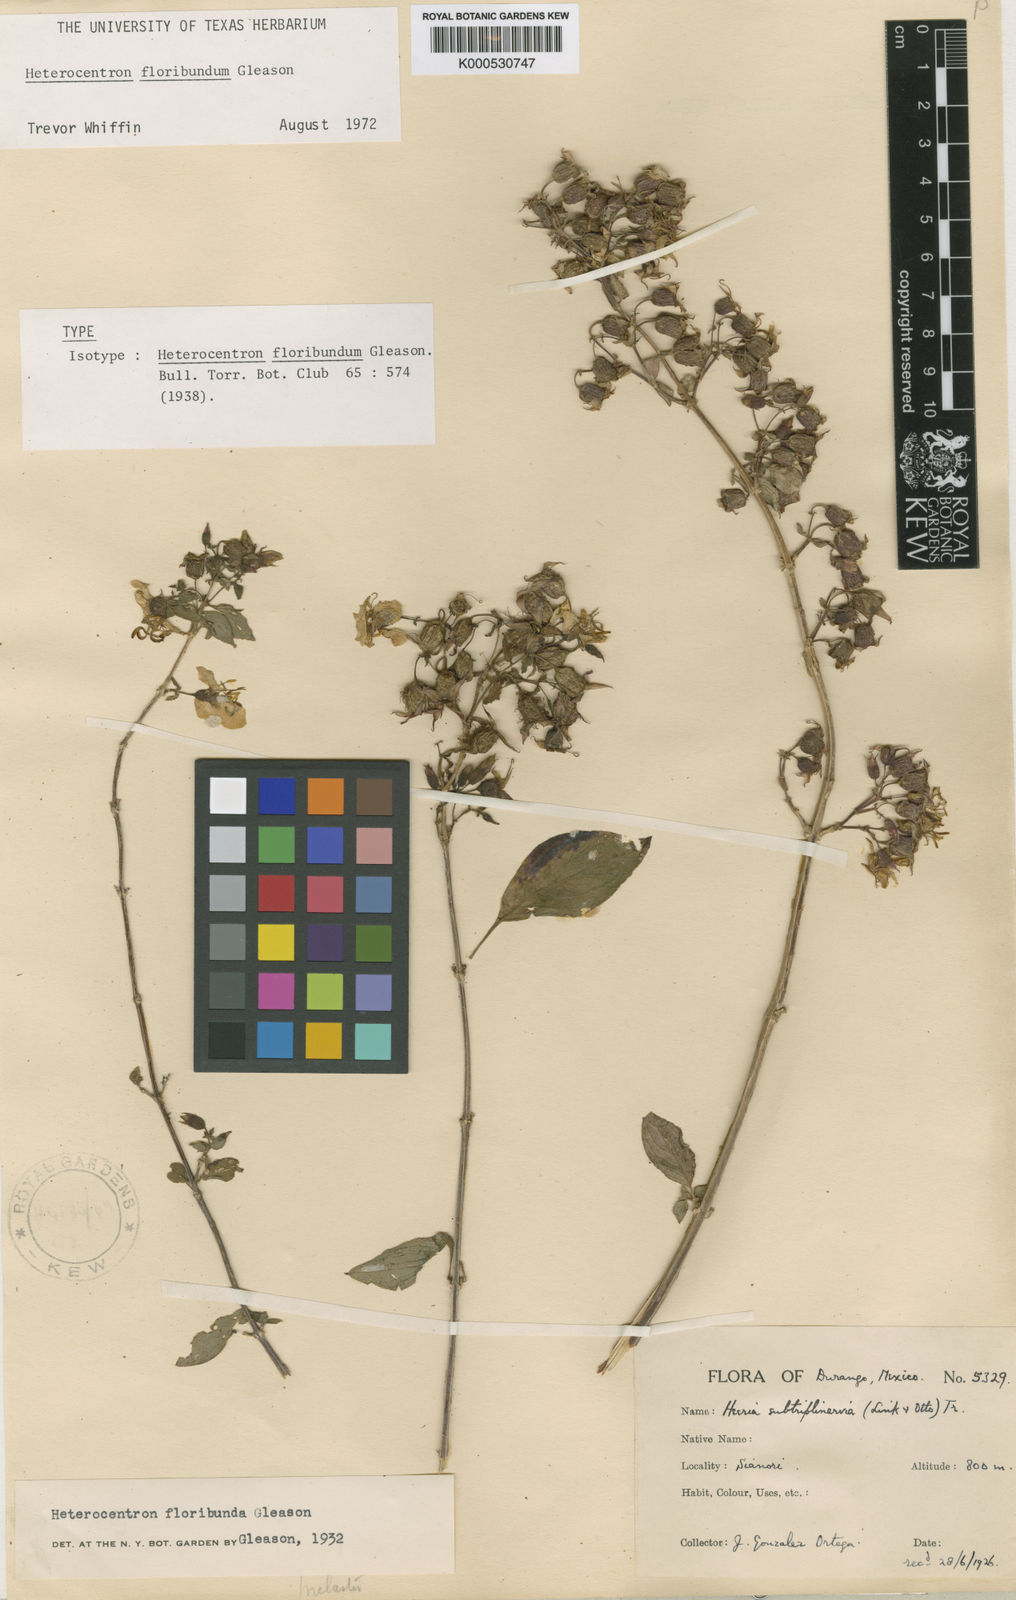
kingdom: Plantae
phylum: Tracheophyta
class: Magnoliopsida
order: Myrtales
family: Melastomataceae
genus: Heterocentron
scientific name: Heterocentron subtriplinervium
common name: Pearl flower
